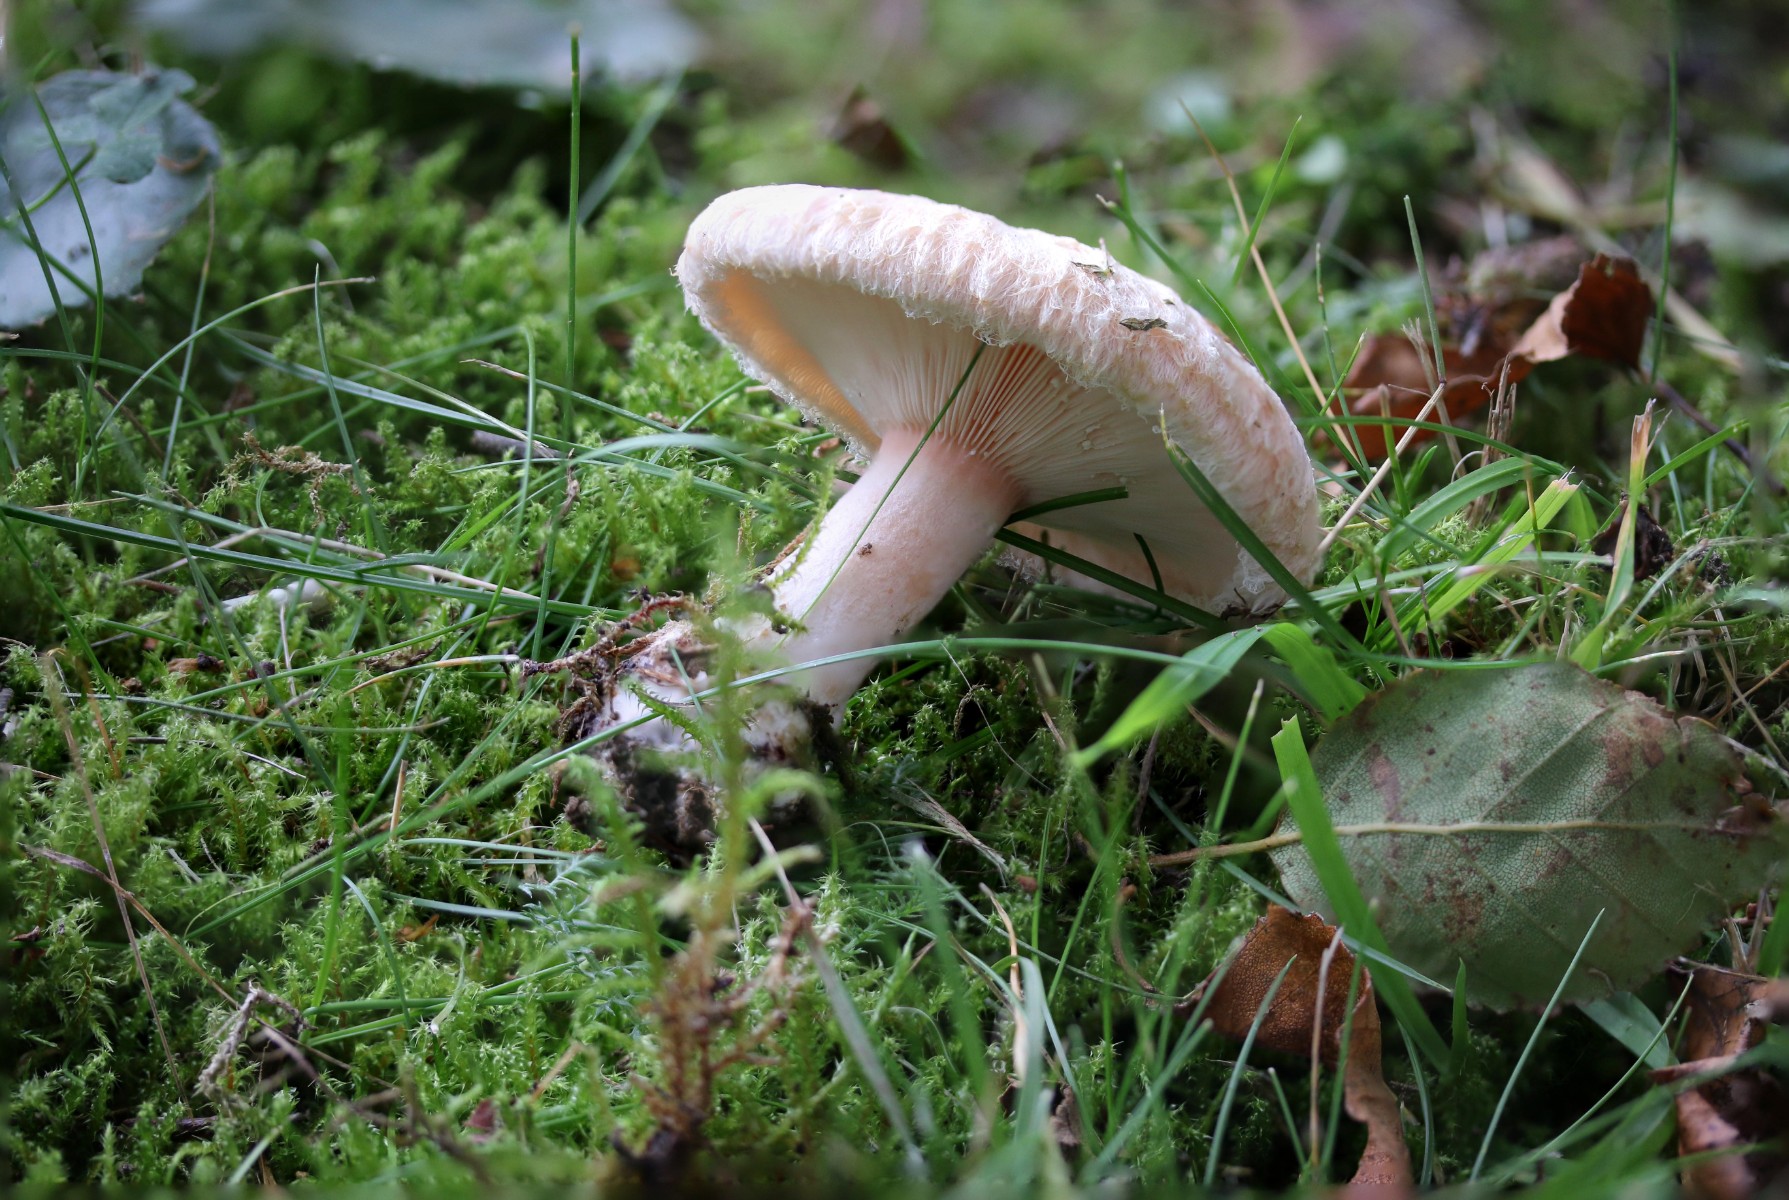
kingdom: Fungi
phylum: Basidiomycota
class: Agaricomycetes
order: Russulales
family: Russulaceae
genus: Lactarius
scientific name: Lactarius torminosus
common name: skægget mælkehat
